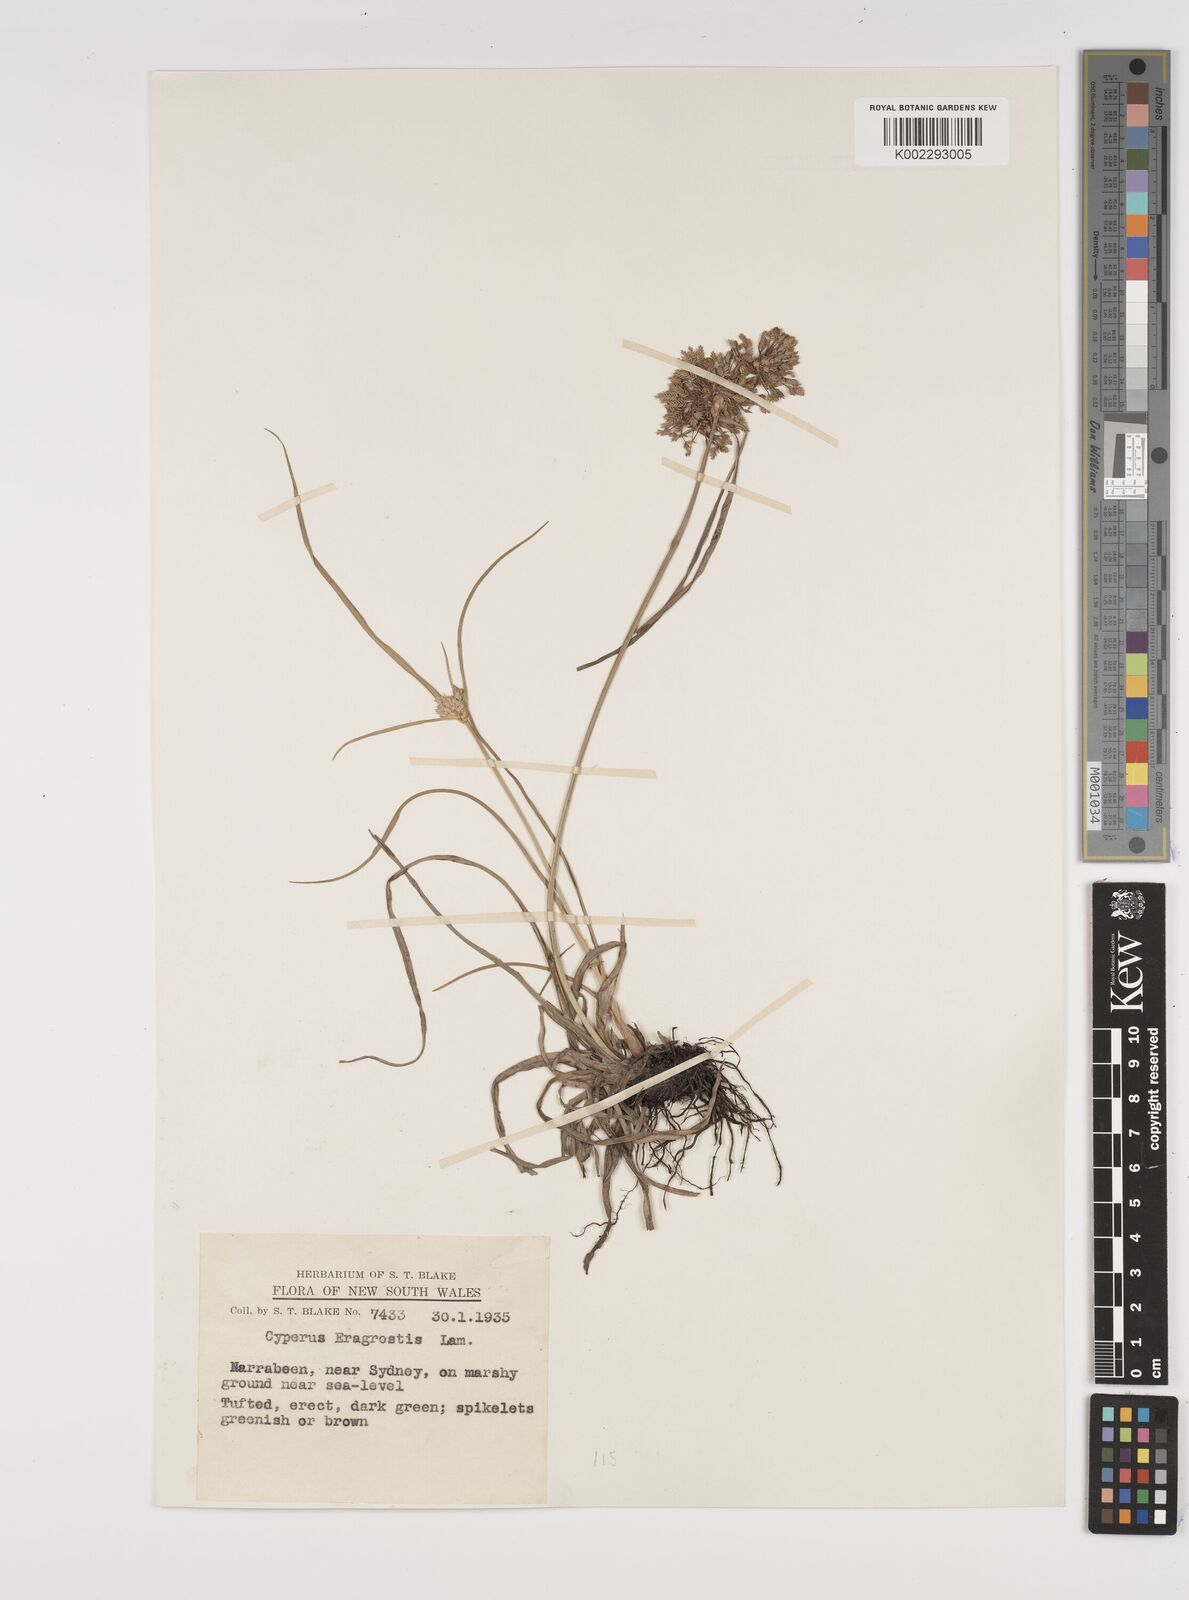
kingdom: Plantae
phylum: Tracheophyta
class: Liliopsida
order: Poales
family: Cyperaceae
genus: Cyperus
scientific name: Cyperus eragrostis
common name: Tall flatsedge
